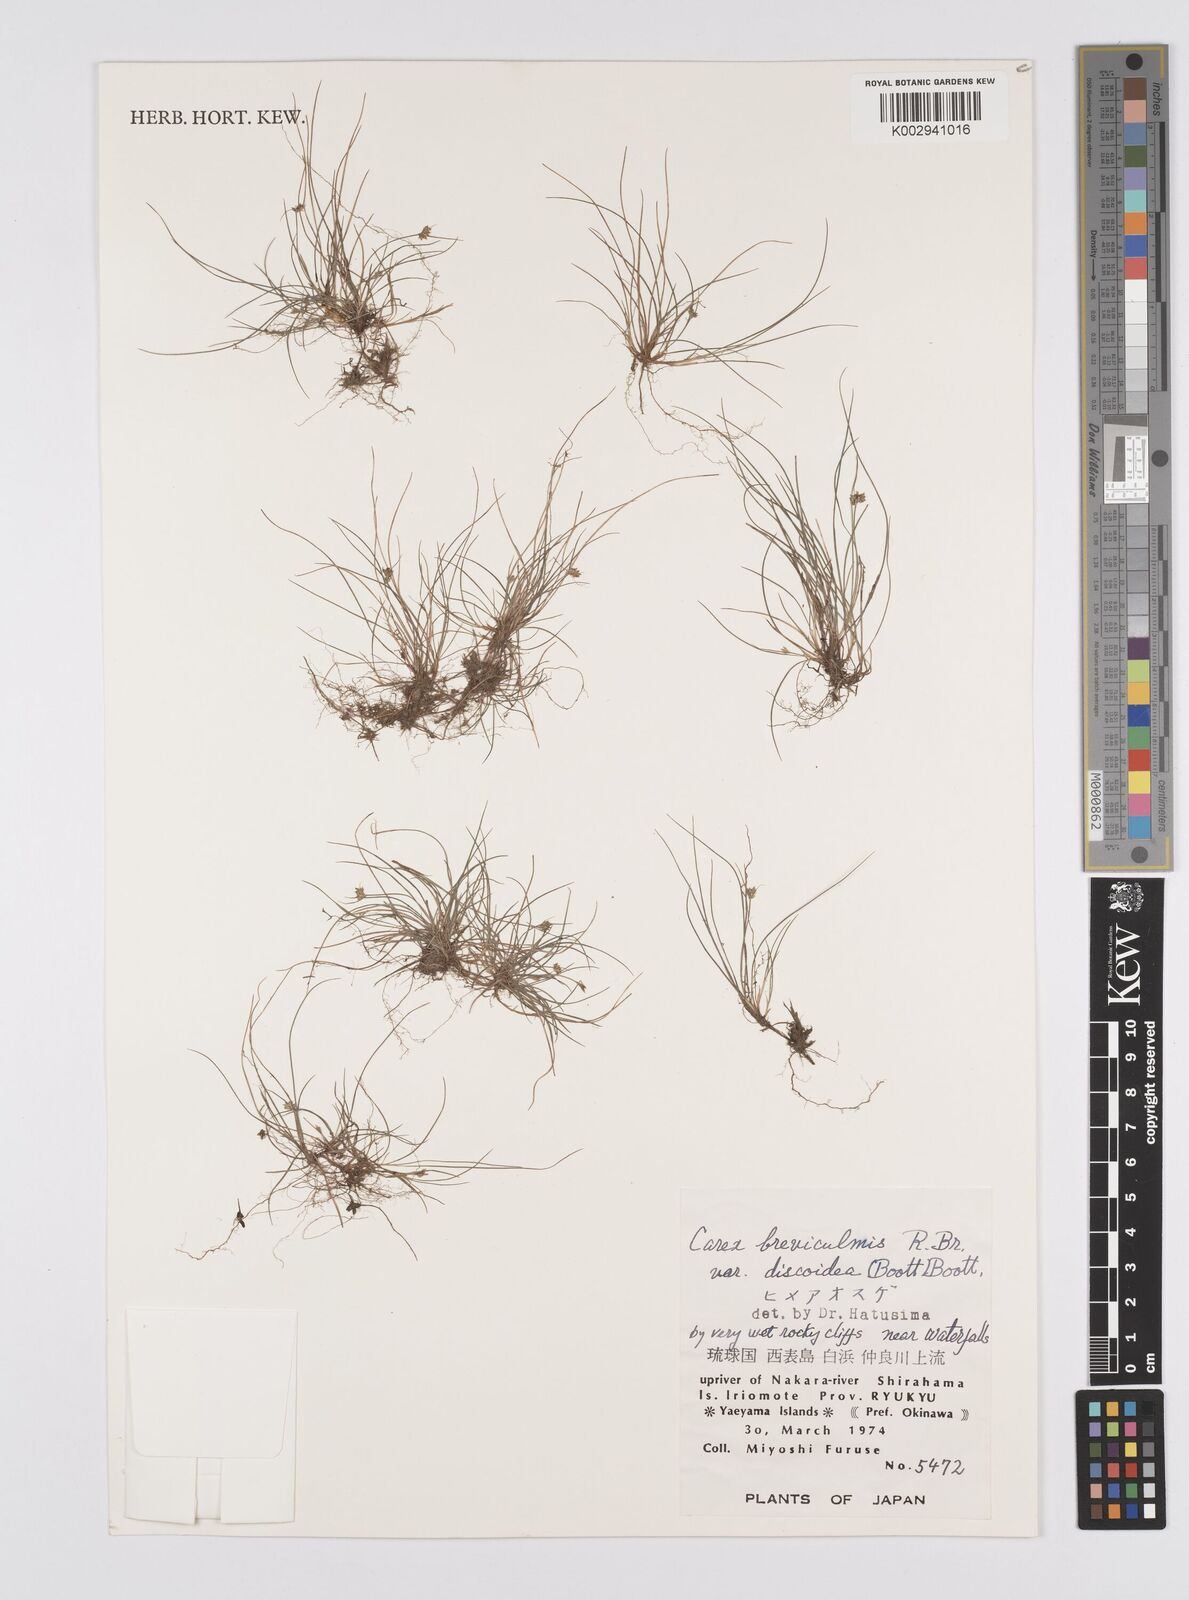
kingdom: Plantae
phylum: Tracheophyta
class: Liliopsida
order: Poales
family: Cyperaceae
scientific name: Cyperaceae
